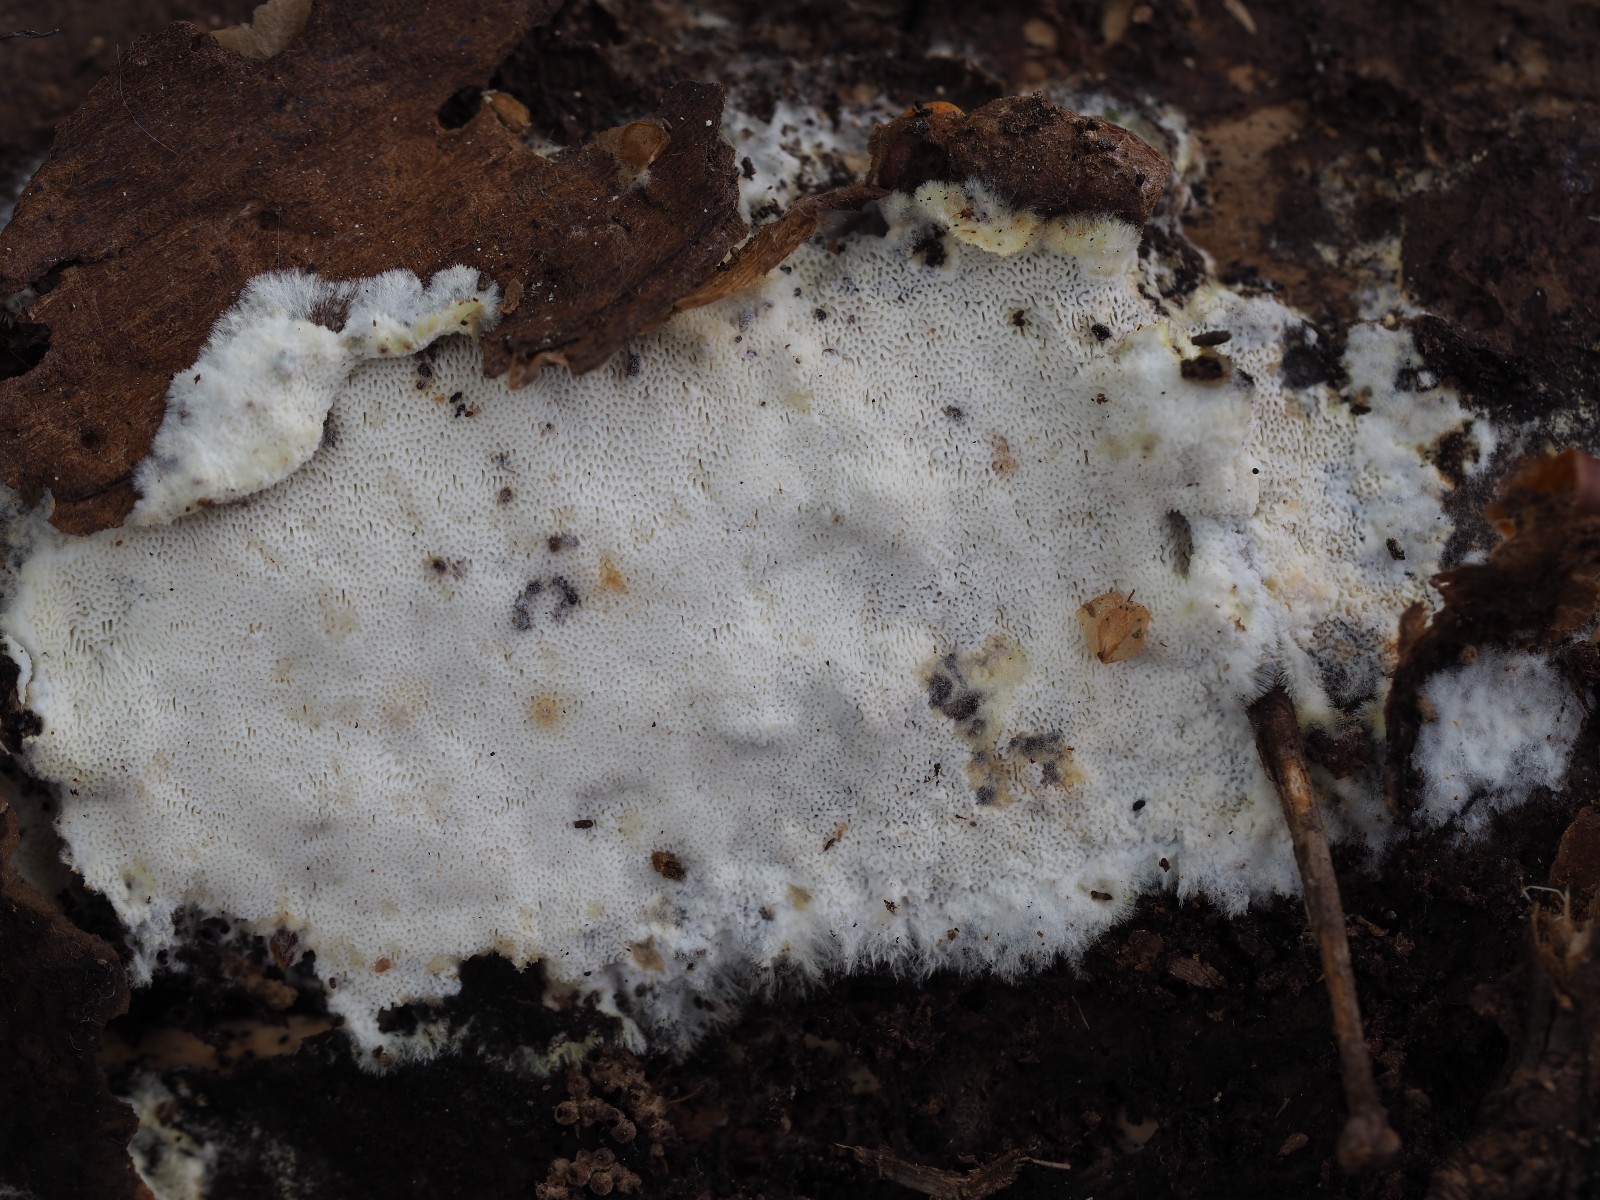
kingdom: Fungi
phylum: Basidiomycota
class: Agaricomycetes
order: Polyporales
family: Incrustoporiaceae
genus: Skeletocutis
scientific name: Skeletocutis kuehneri
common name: smalsporet krystalporesvamp
